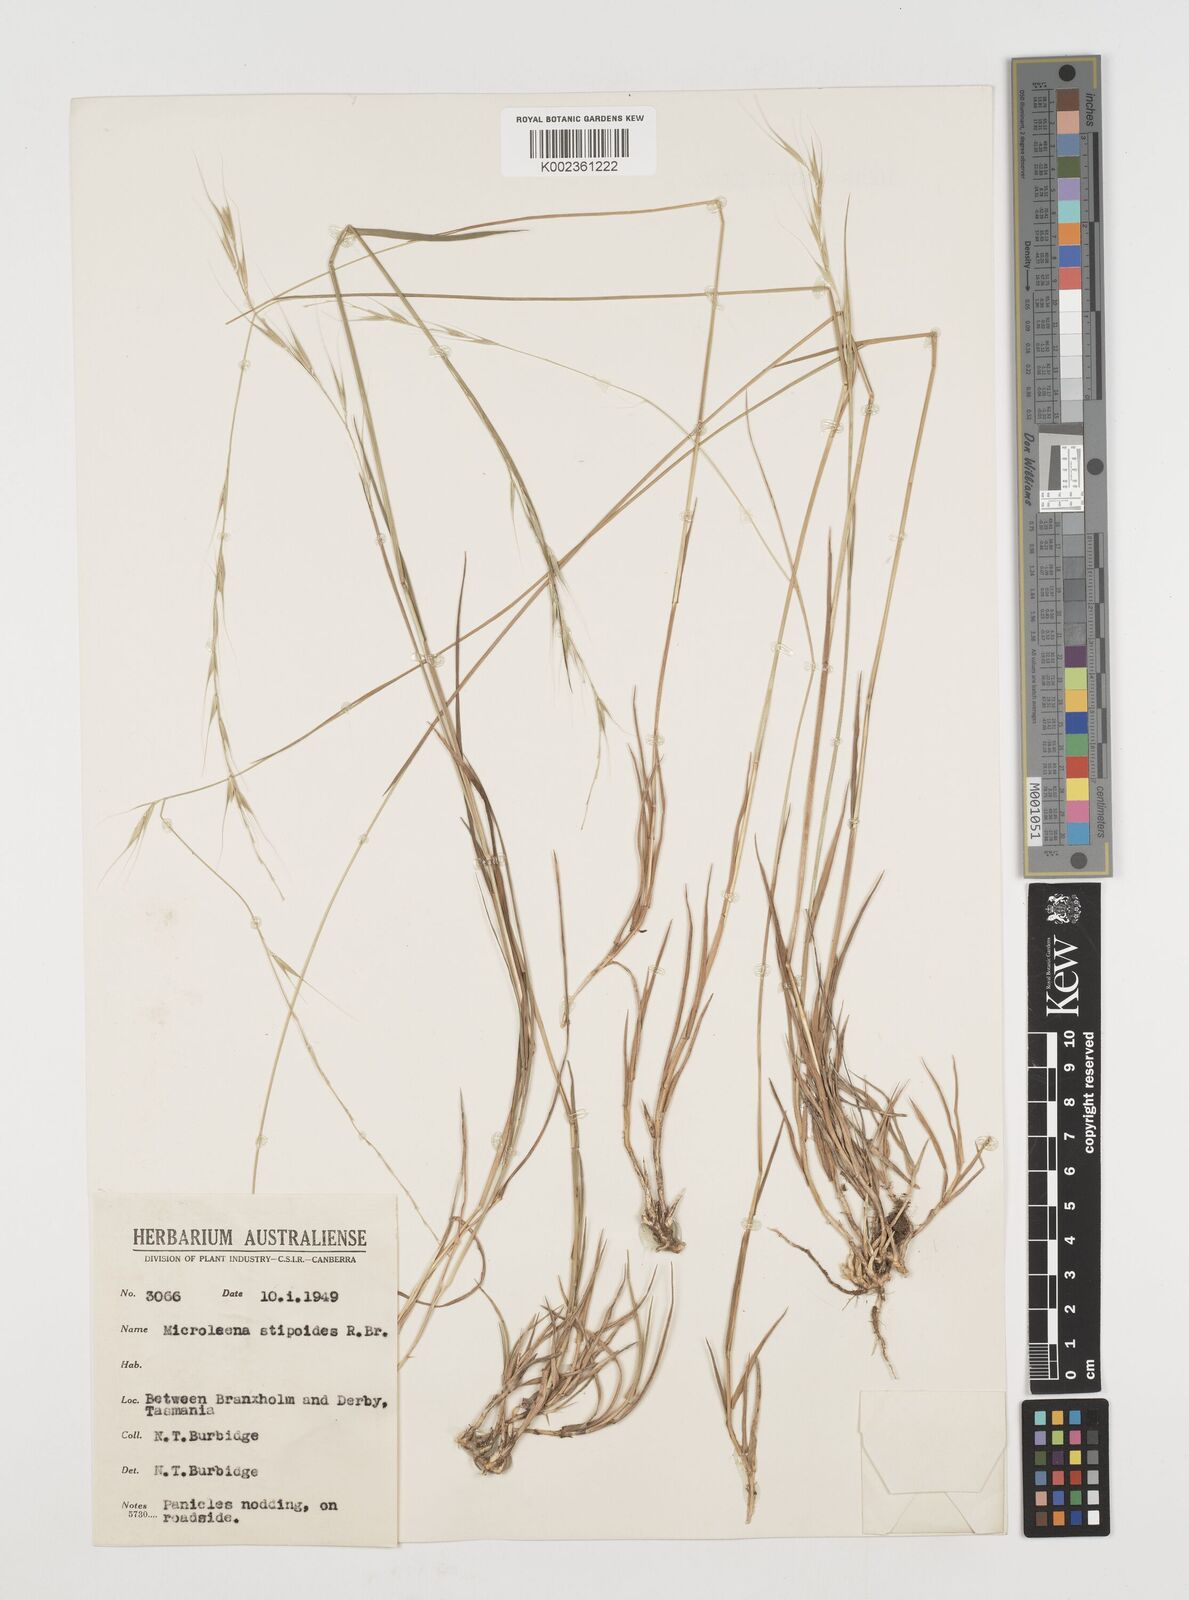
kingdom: Plantae
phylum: Tracheophyta
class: Liliopsida
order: Poales
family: Poaceae
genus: Microlaena
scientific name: Microlaena stipoides
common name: Meadow ricegrass
